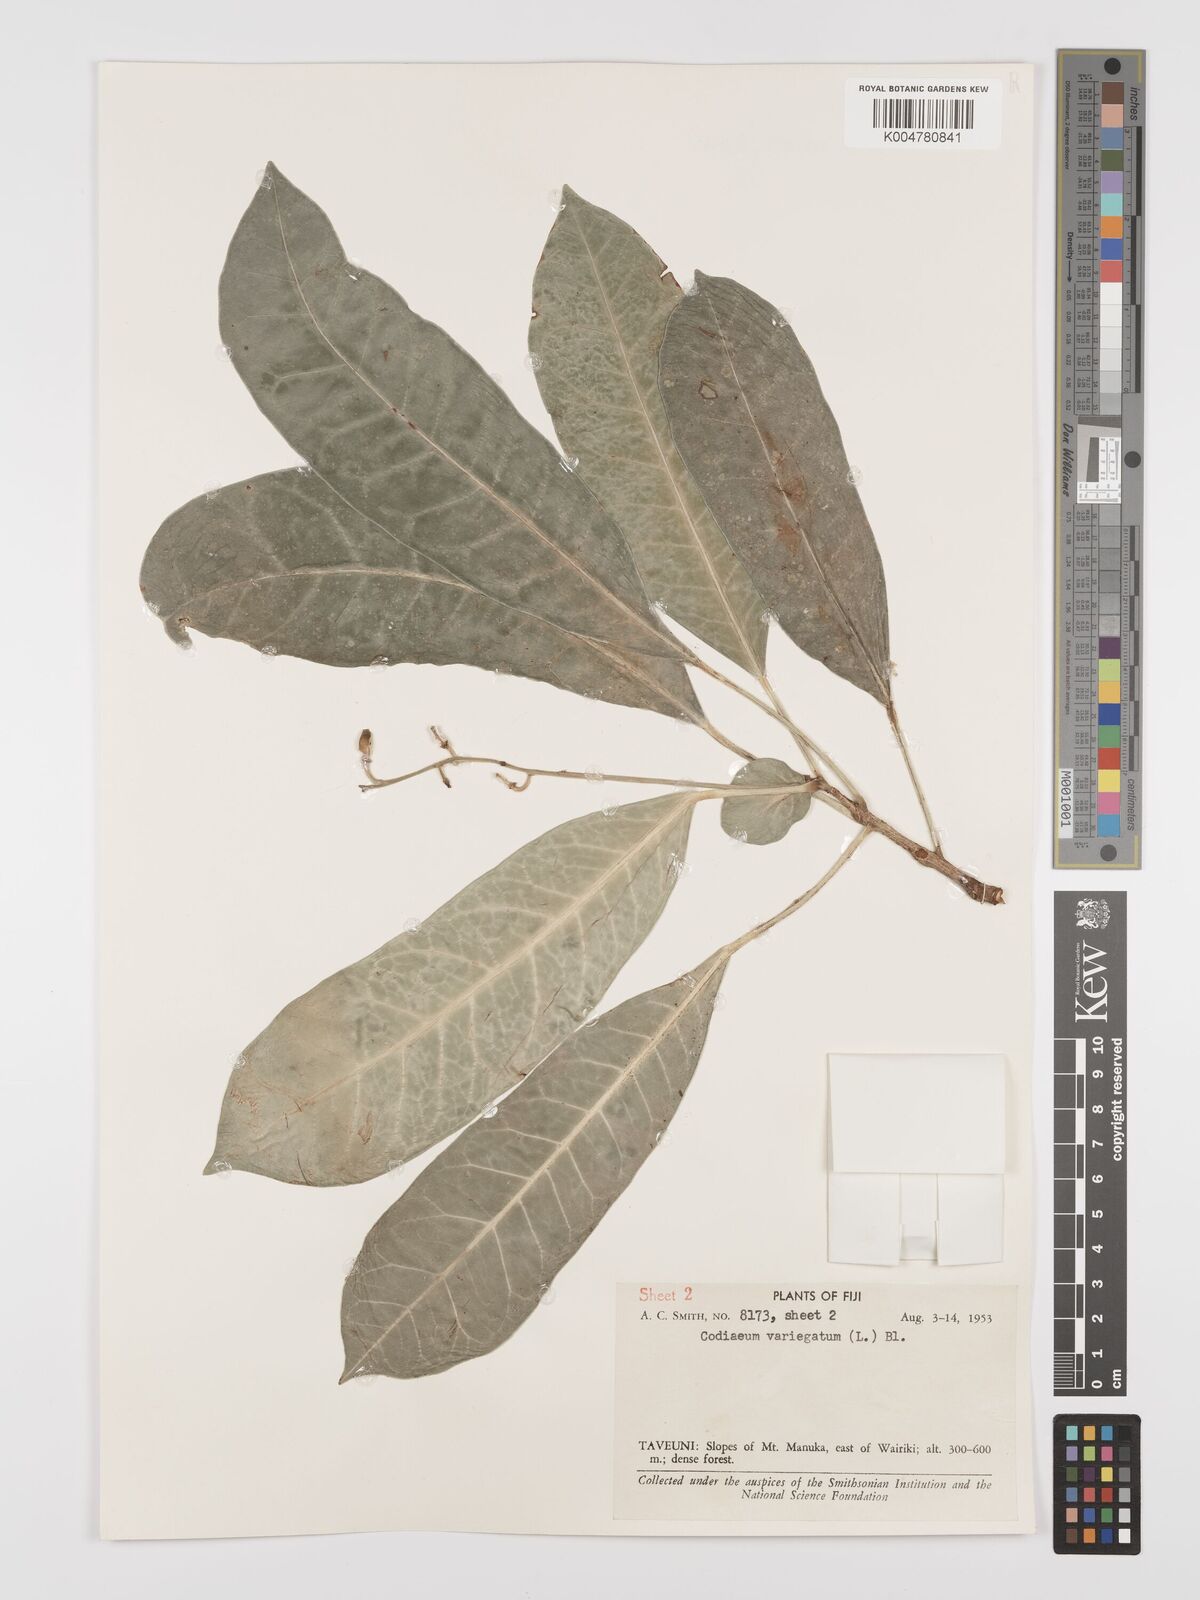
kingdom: Plantae
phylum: Tracheophyta
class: Magnoliopsida
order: Malpighiales
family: Euphorbiaceae
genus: Codiaeum
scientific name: Codiaeum variegatum
